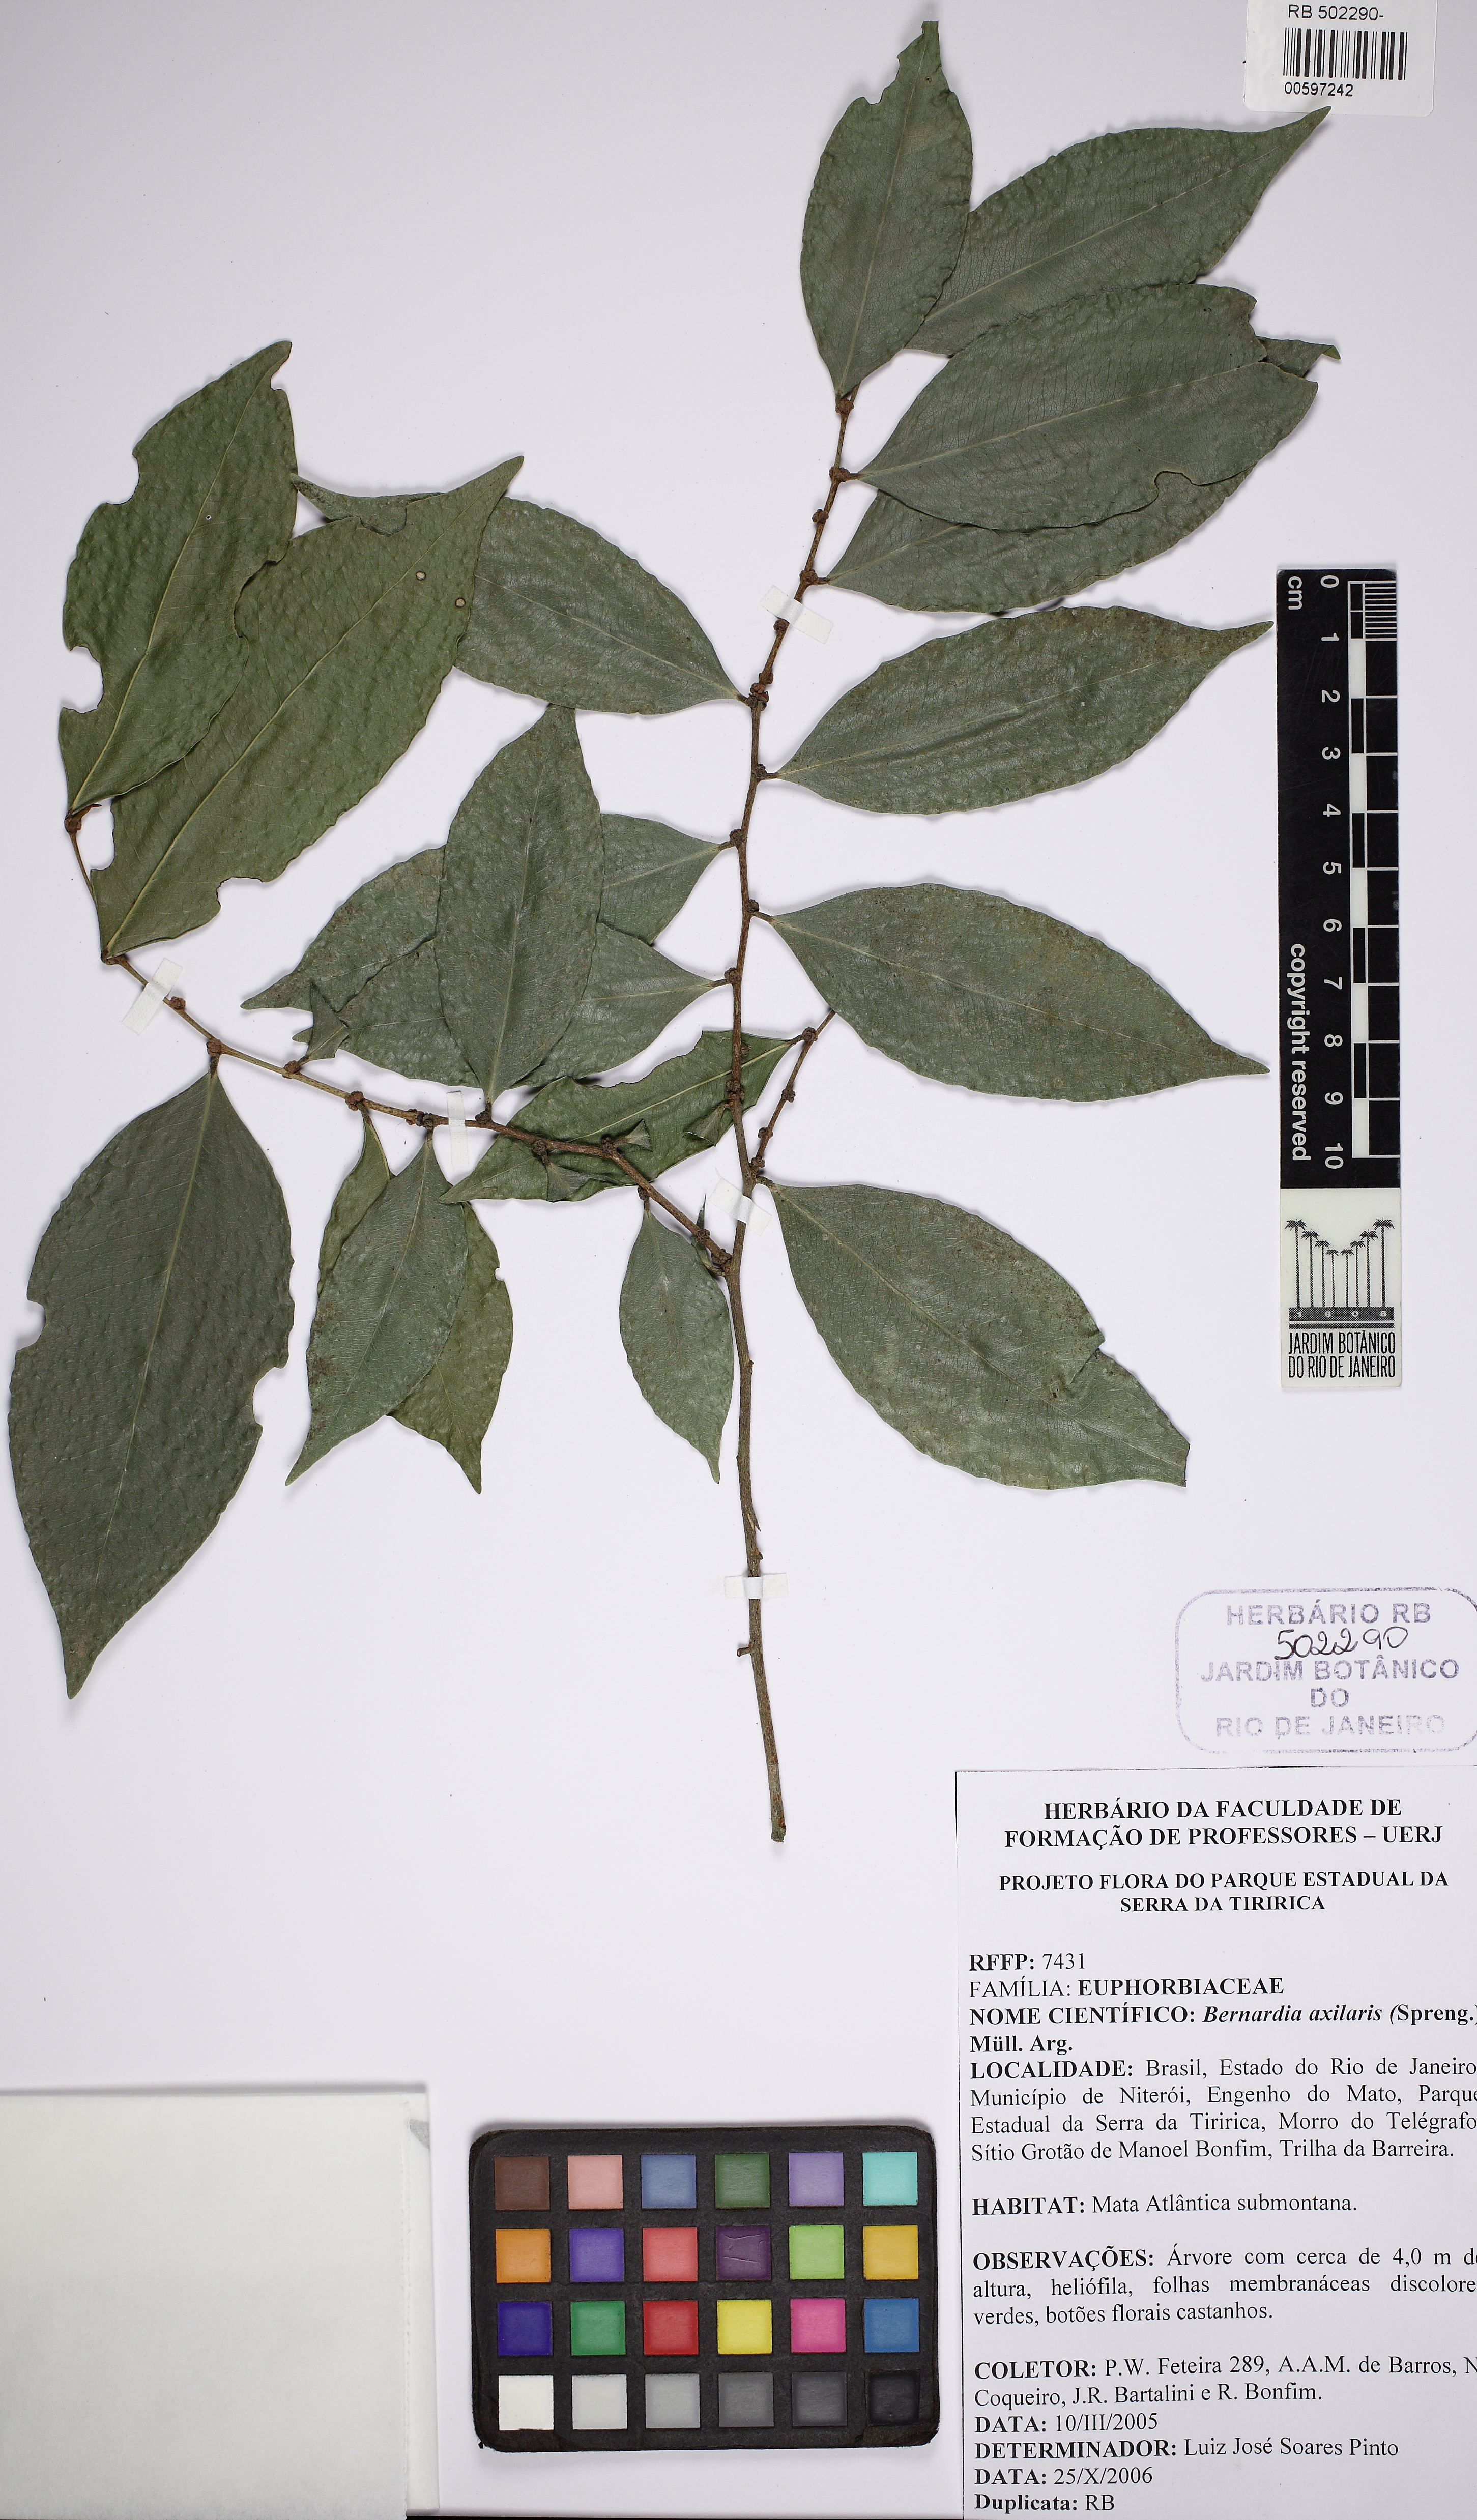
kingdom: Plantae
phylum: Tracheophyta
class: Magnoliopsida
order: Malpighiales
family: Euphorbiaceae
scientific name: Euphorbiaceae
